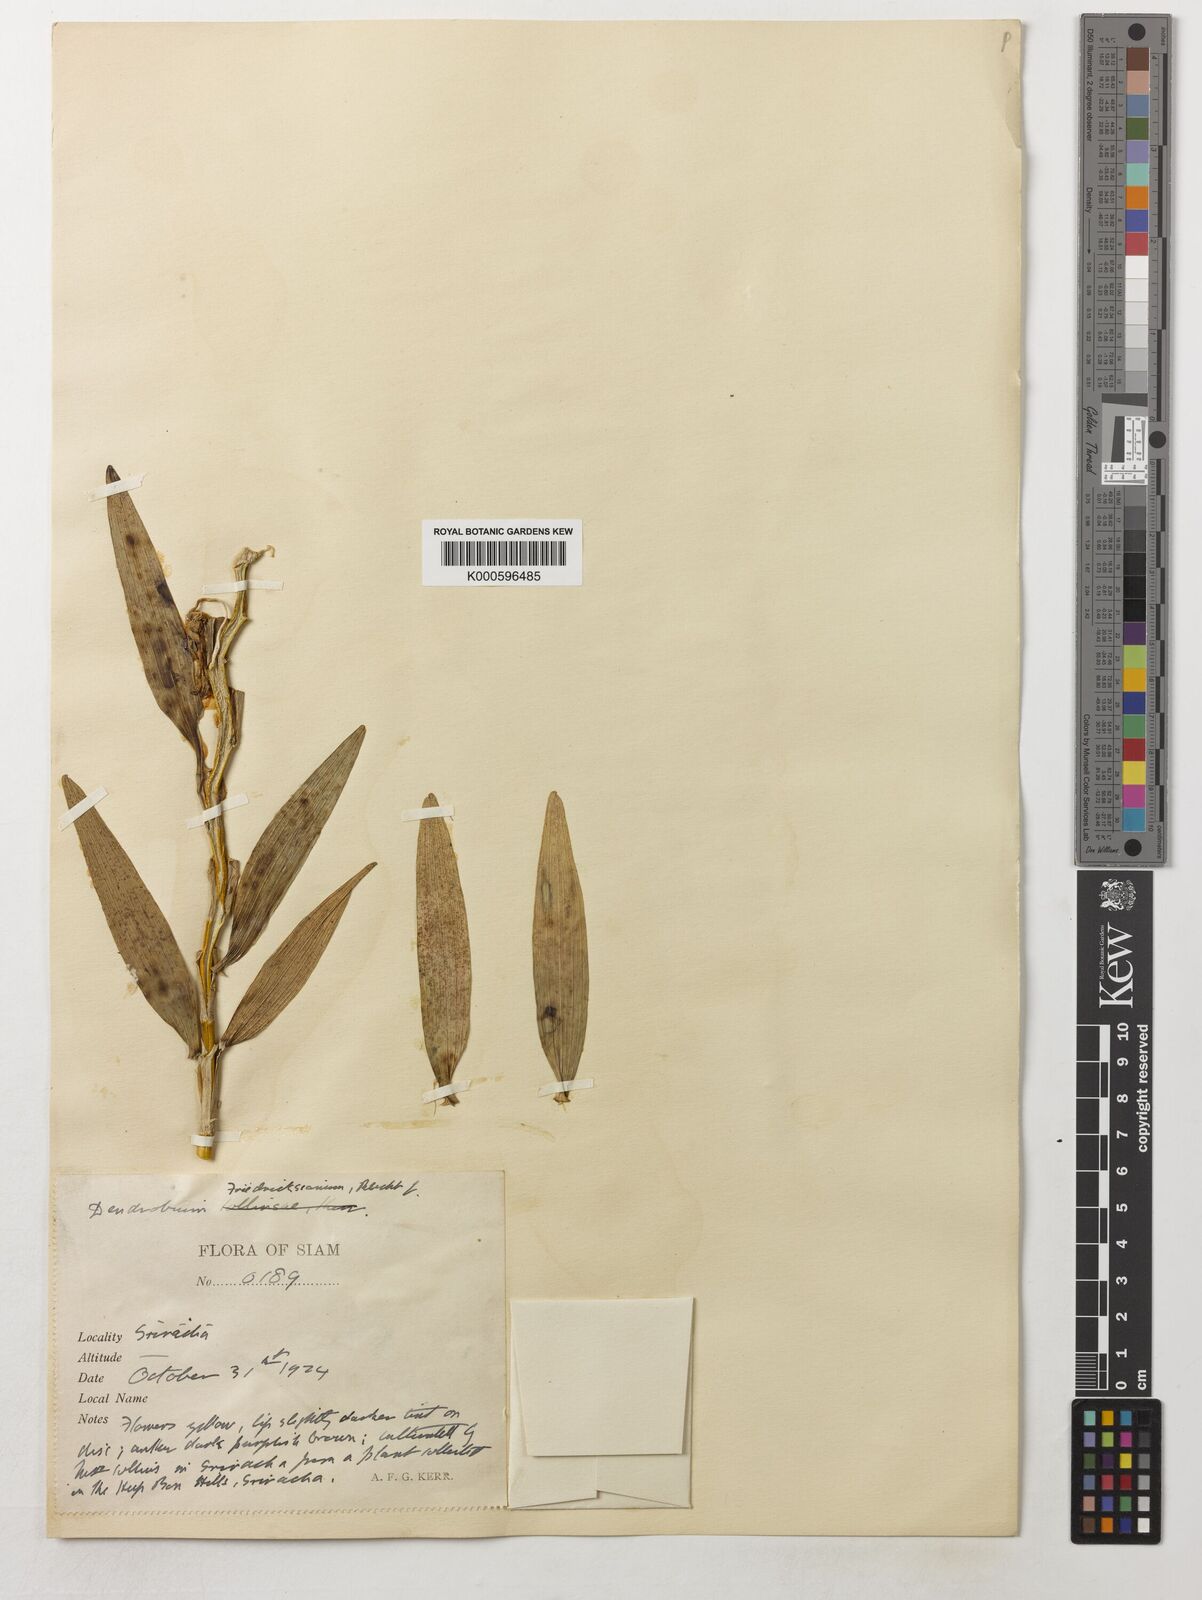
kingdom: Plantae
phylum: Tracheophyta
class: Liliopsida
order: Asparagales
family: Orchidaceae
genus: Dendrobium
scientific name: Dendrobium friedericksianum
